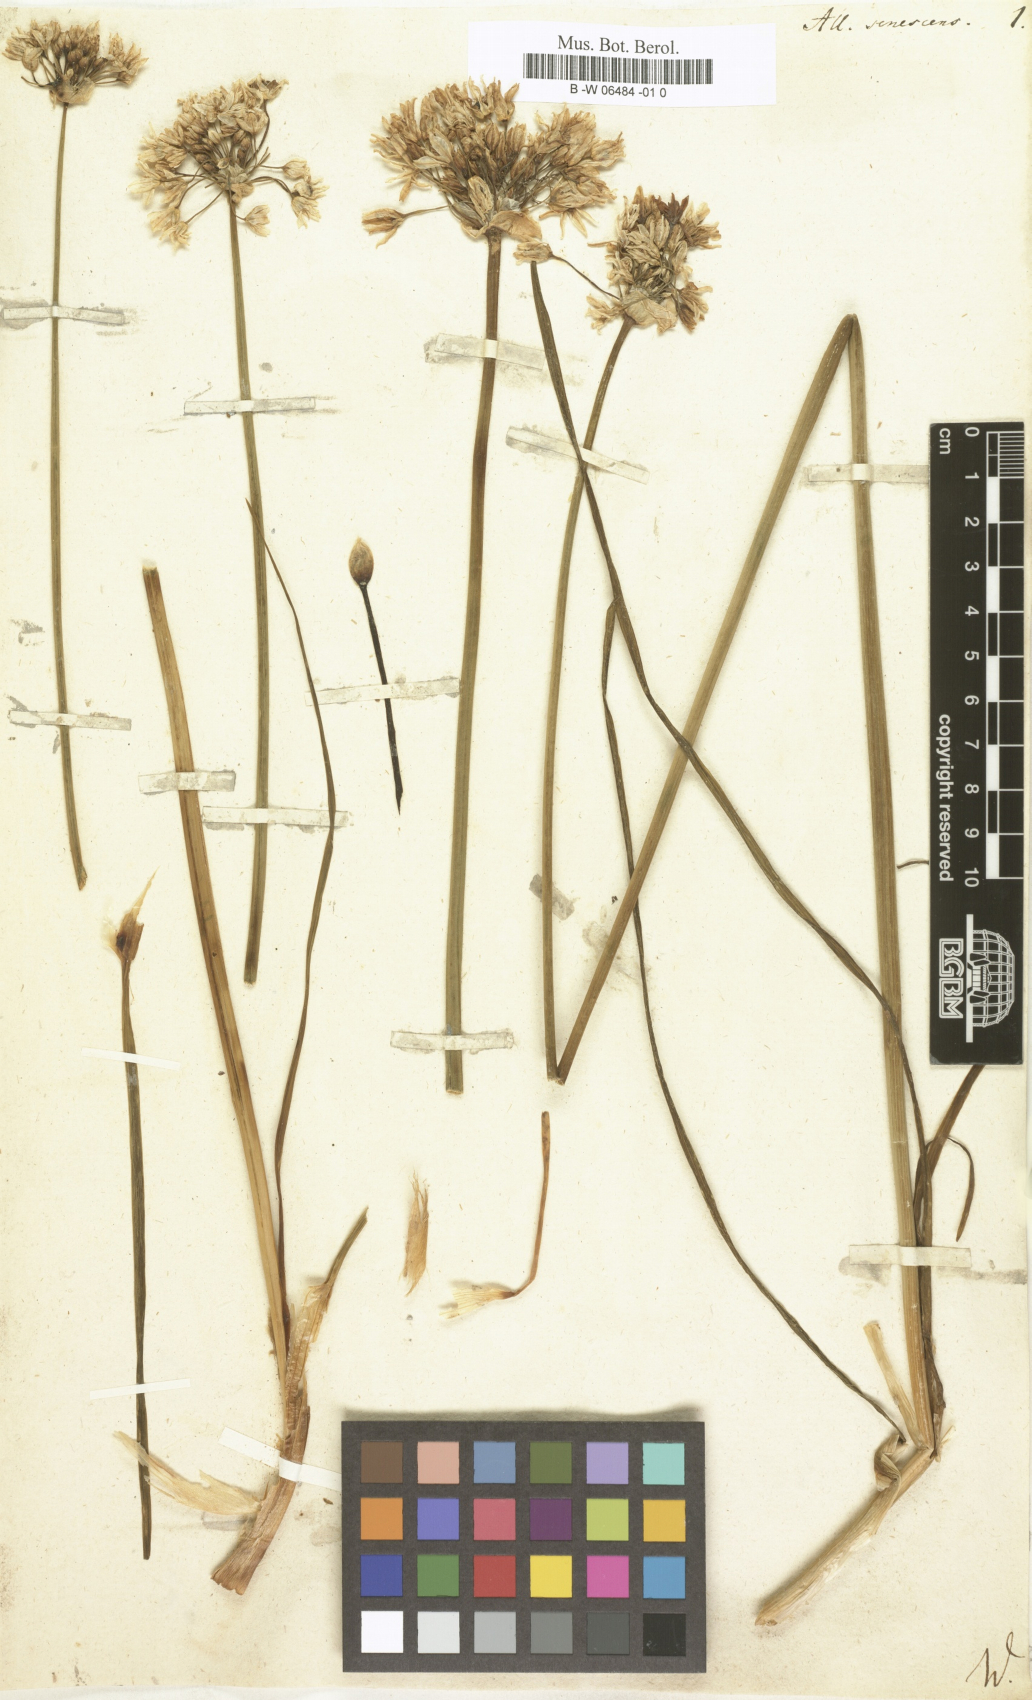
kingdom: Plantae
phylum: Tracheophyta
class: Liliopsida
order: Asparagales
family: Amaryllidaceae
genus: Allium
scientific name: Allium senescens
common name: German garlic
